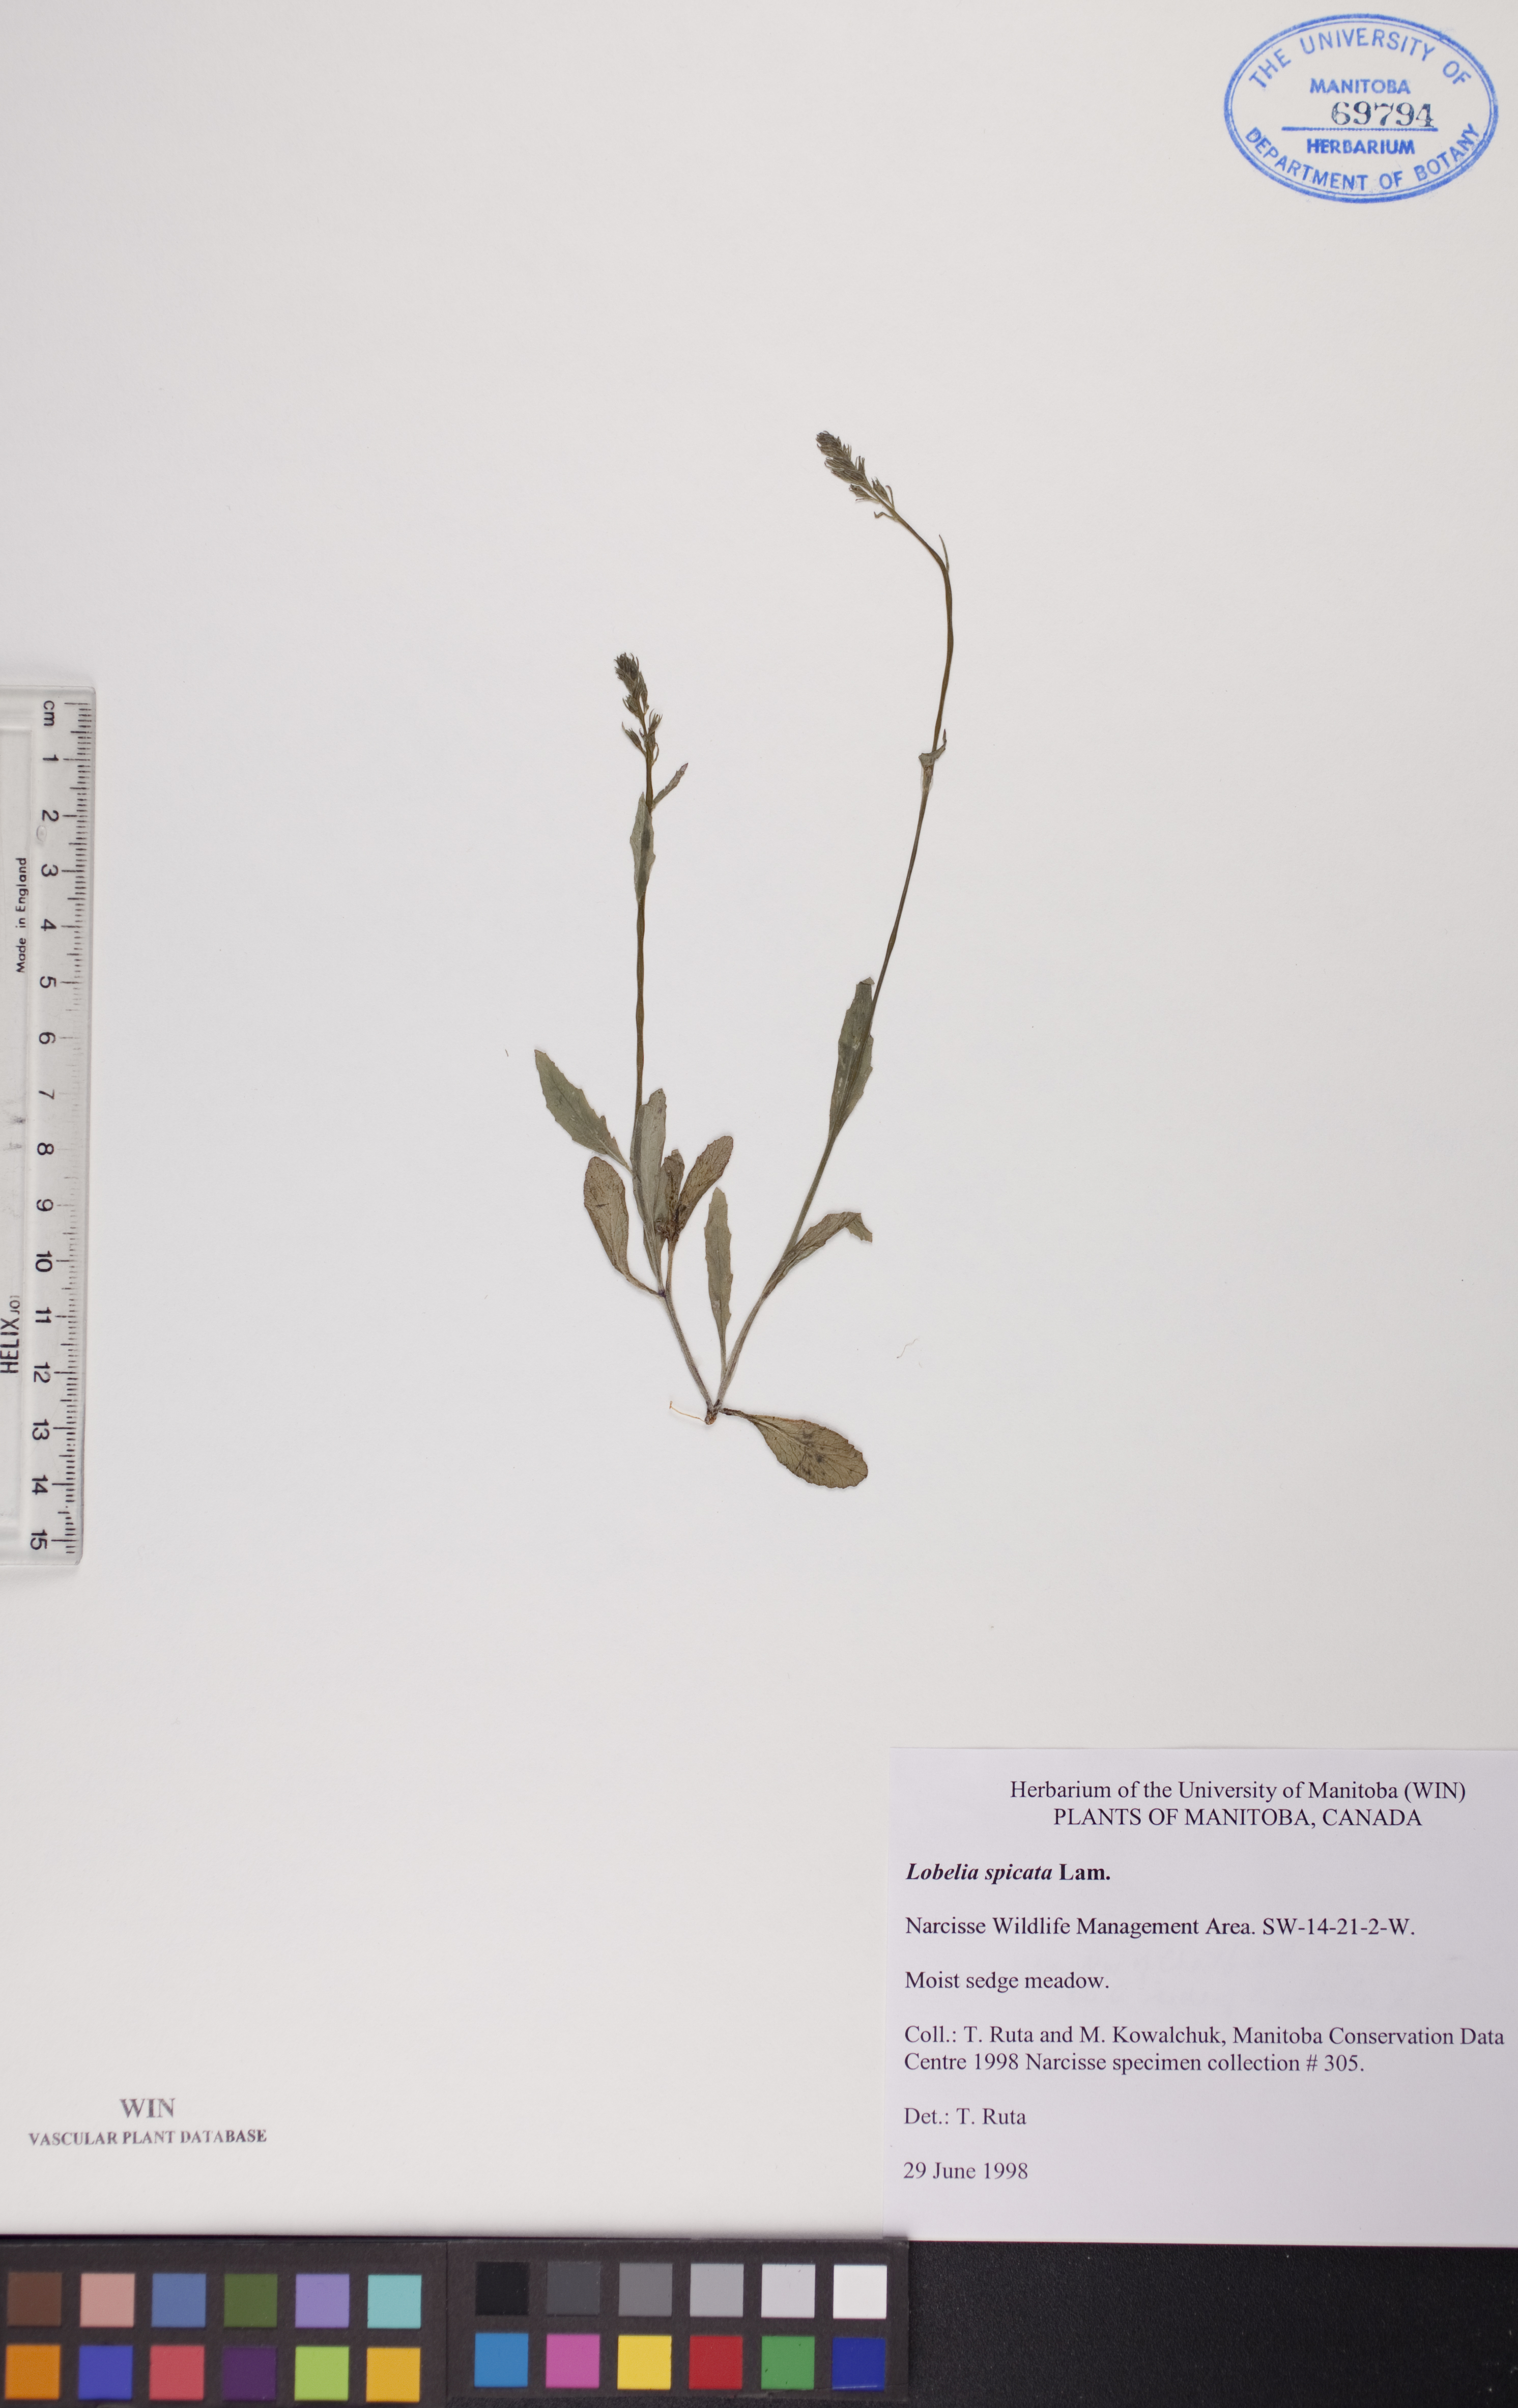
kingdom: Plantae
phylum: Tracheophyta
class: Magnoliopsida
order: Asterales
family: Campanulaceae
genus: Lobelia
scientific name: Lobelia spicata
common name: Pale-spike lobelia
